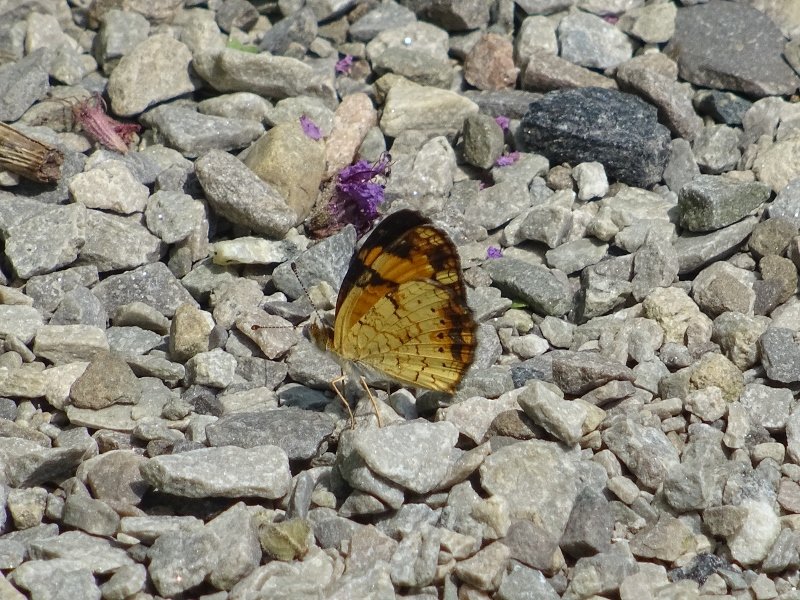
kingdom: Animalia
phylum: Arthropoda
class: Insecta
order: Lepidoptera
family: Nymphalidae
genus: Phyciodes
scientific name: Phyciodes tharos
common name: Pearl Crescent
